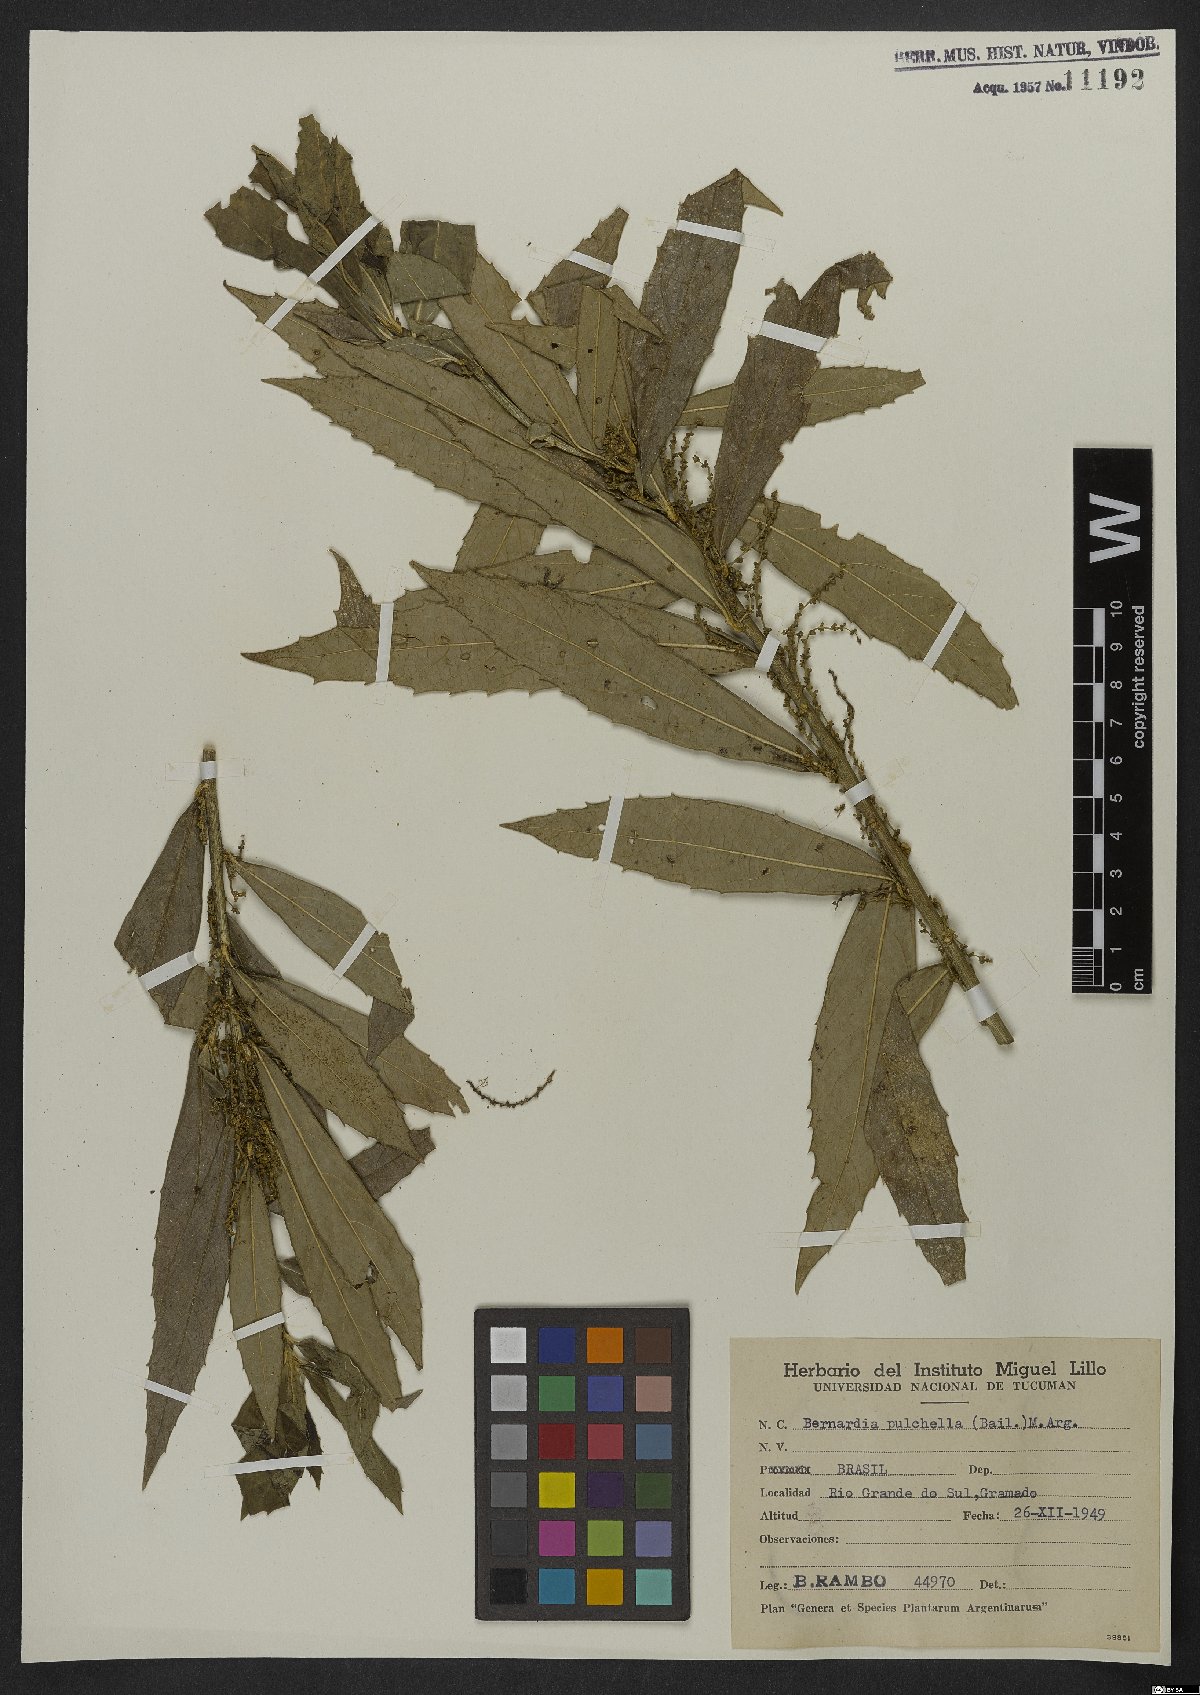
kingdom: Plantae
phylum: Tracheophyta
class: Magnoliopsida
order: Malpighiales
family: Euphorbiaceae
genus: Bernardia
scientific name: Bernardia pulchella
